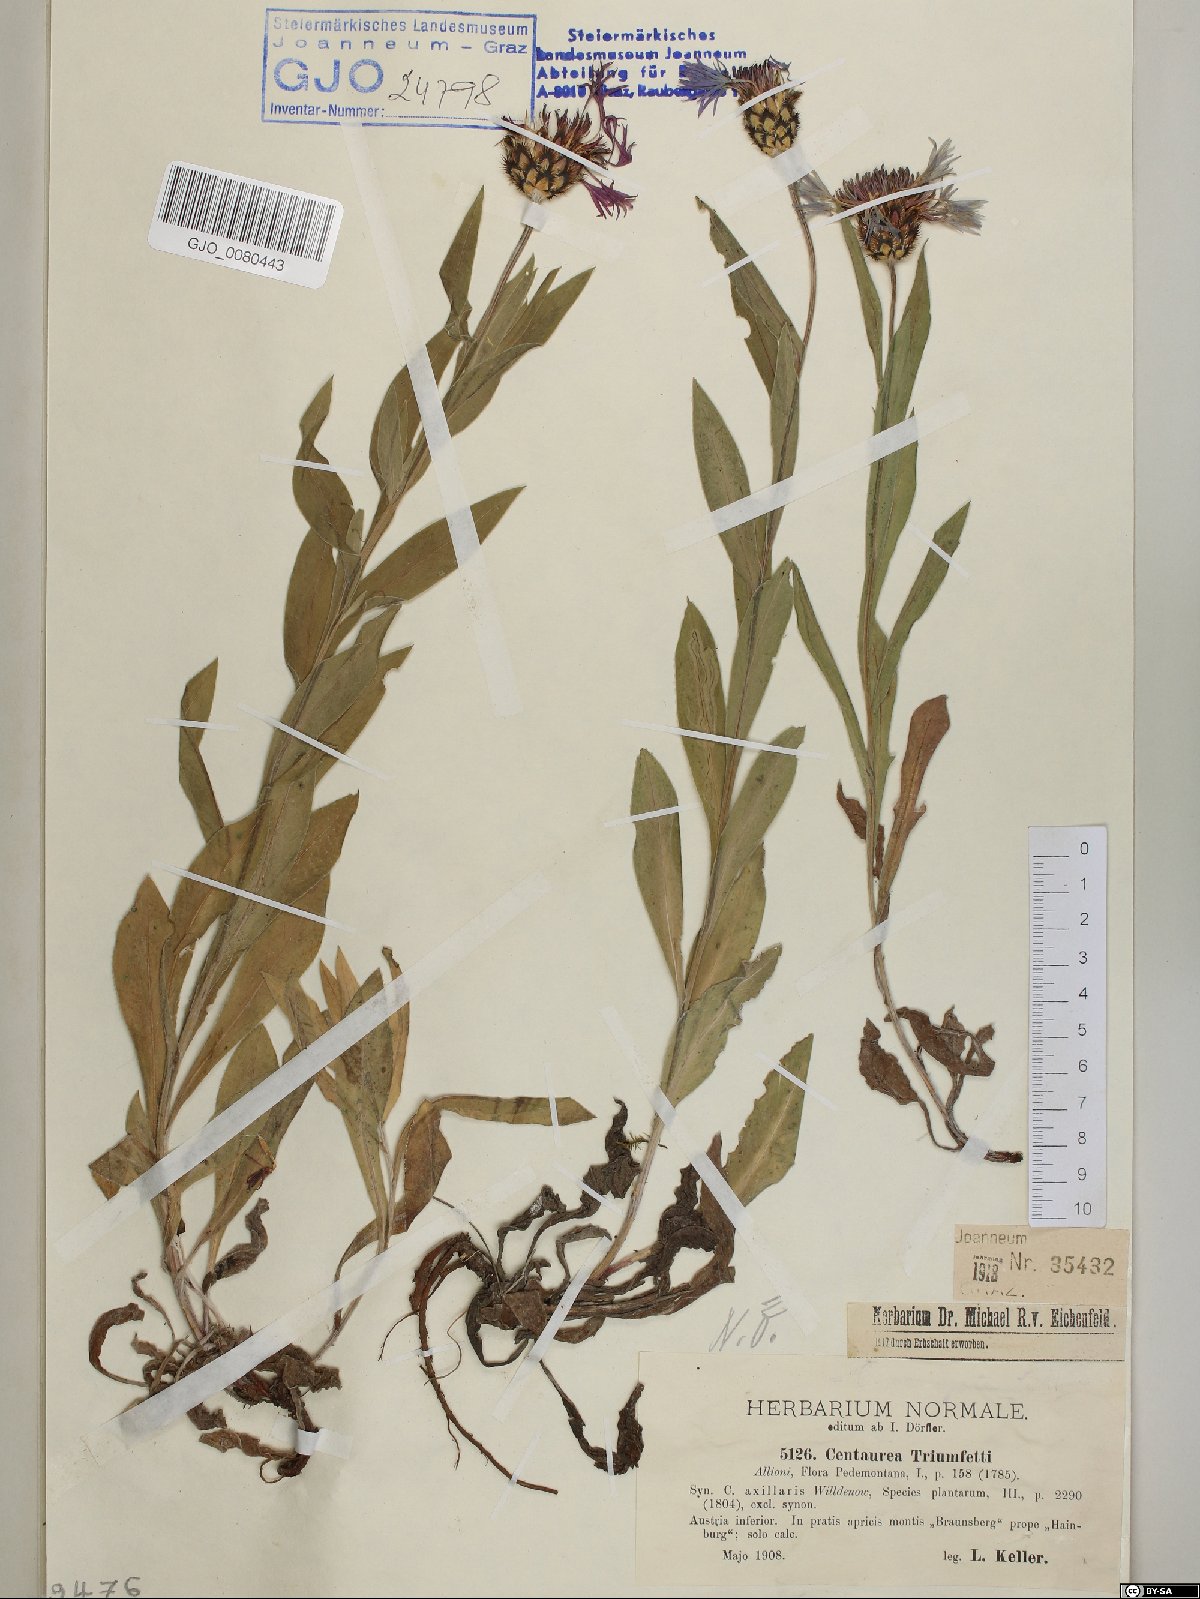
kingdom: Plantae
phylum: Tracheophyta
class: Magnoliopsida
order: Asterales
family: Asteraceae
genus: Centaurea
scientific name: Centaurea triumfettii
